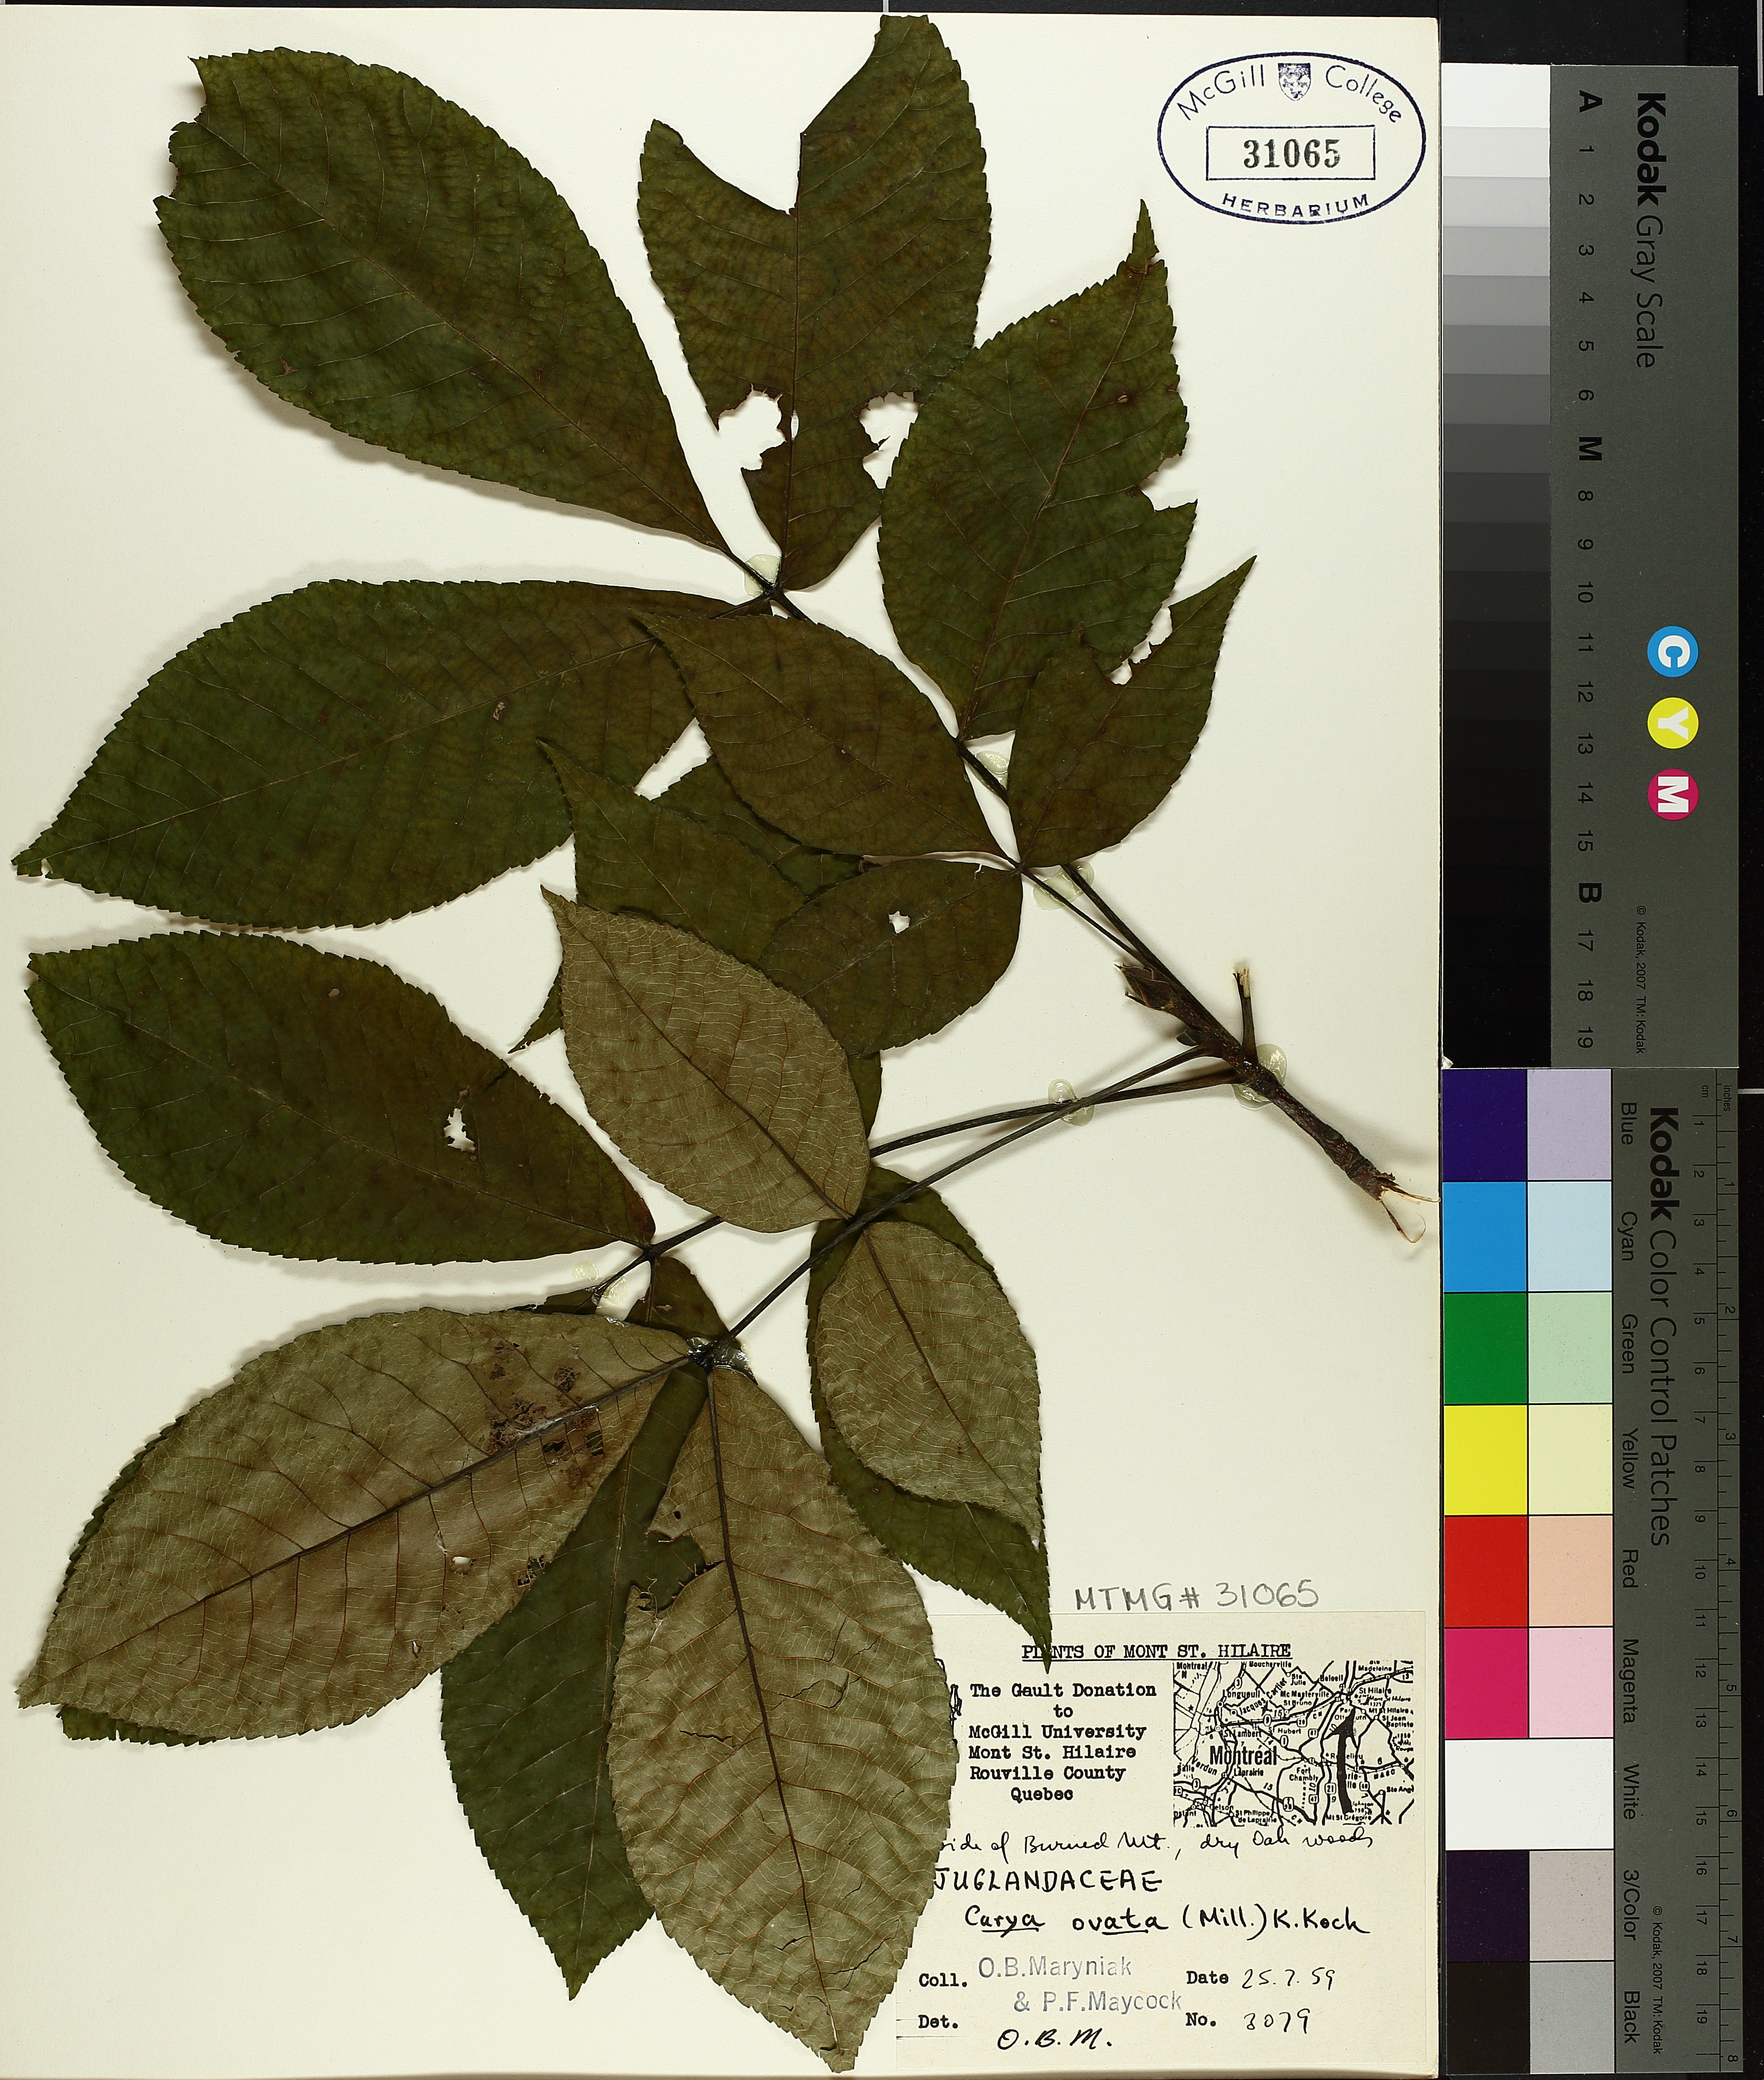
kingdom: Plantae
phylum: Tracheophyta
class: Magnoliopsida
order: Fagales
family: Juglandaceae
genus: Carya
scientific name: Carya ovata
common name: Shagbark hickory
